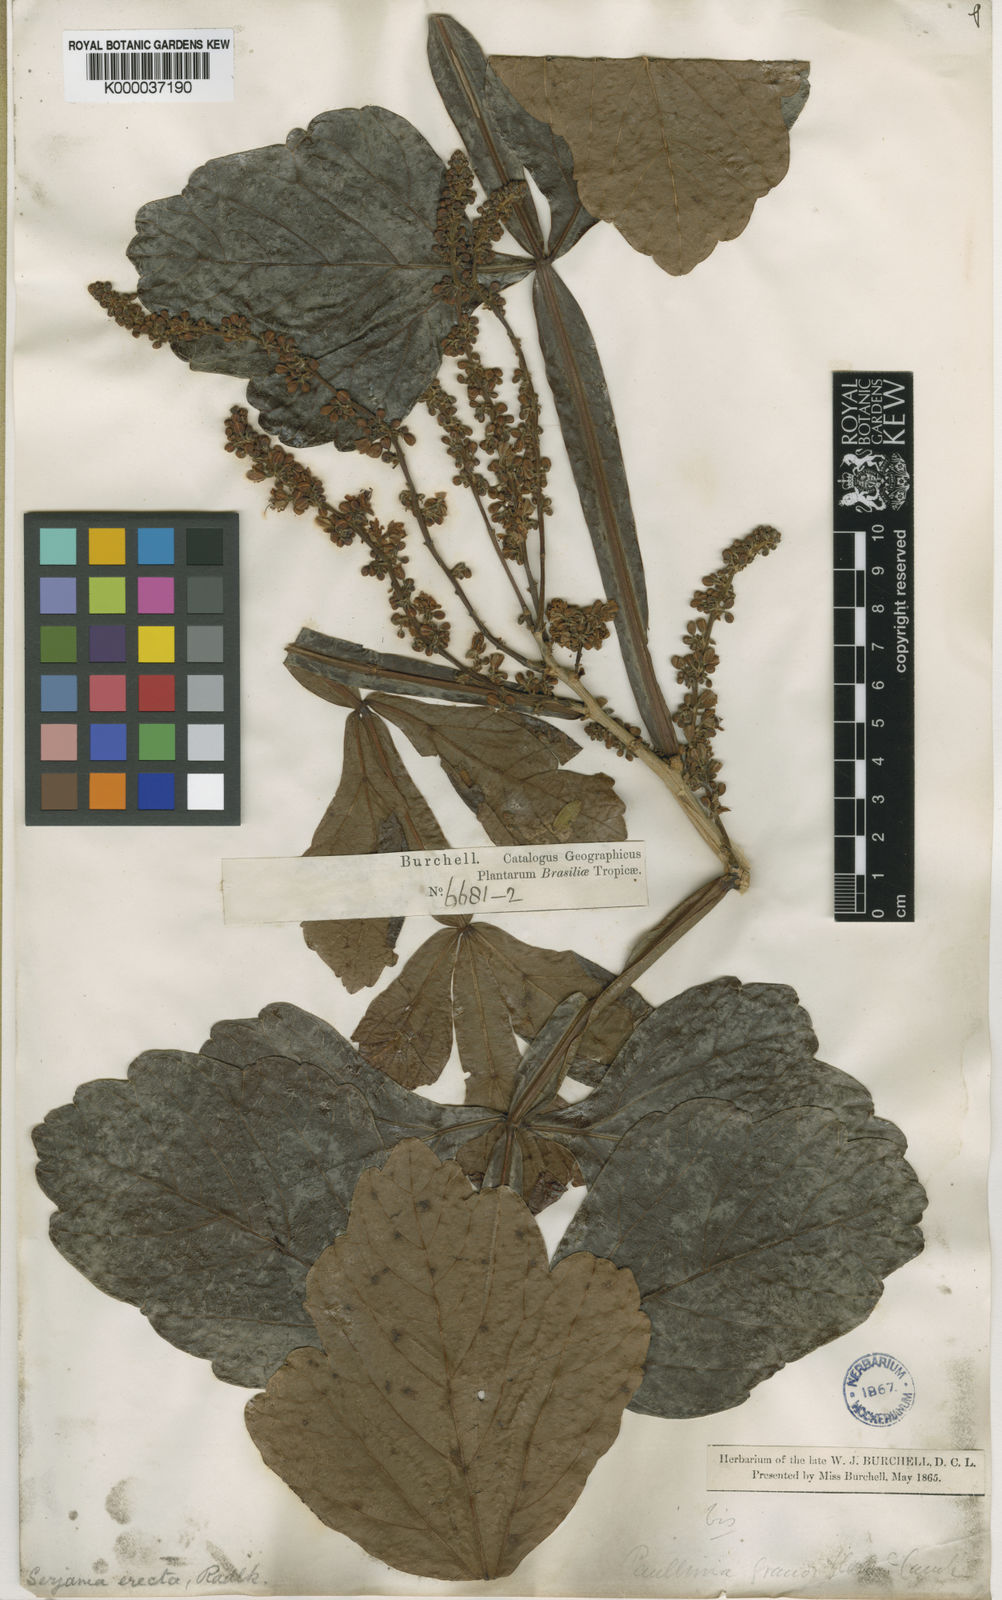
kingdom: Plantae
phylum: Tracheophyta
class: Magnoliopsida
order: Sapindales
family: Sapindaceae
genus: Serjania
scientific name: Serjania erecta
